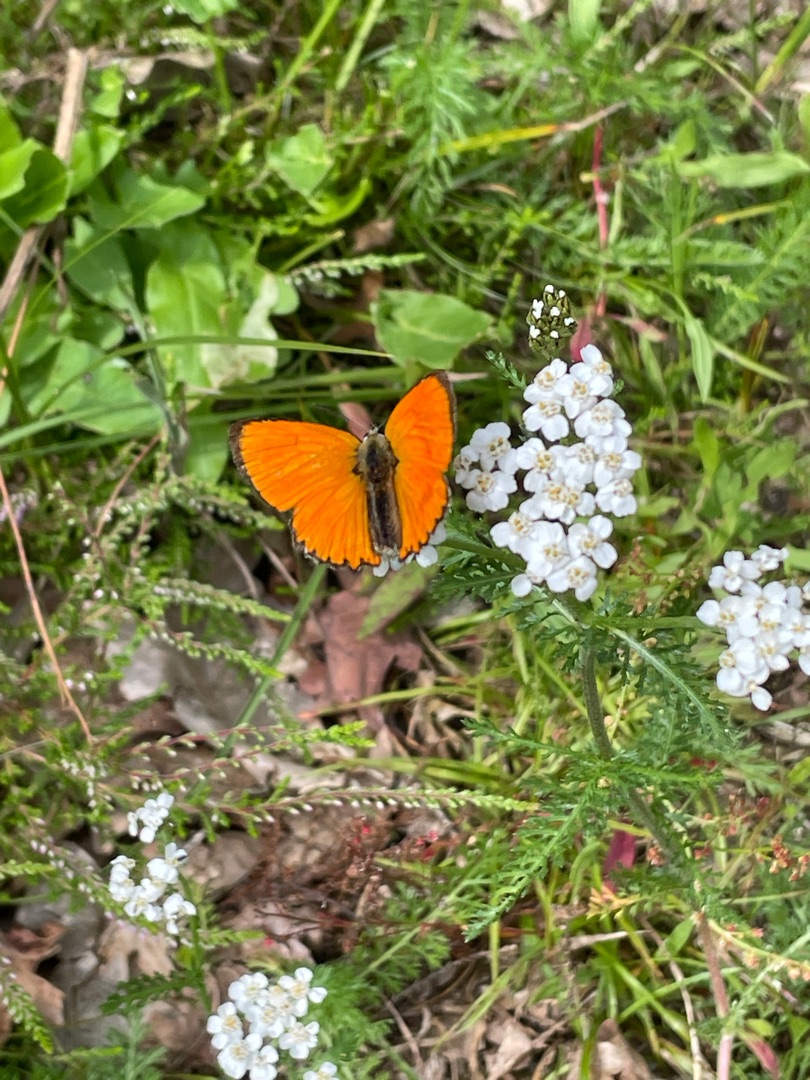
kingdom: Animalia
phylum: Arthropoda
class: Insecta
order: Lepidoptera
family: Lycaenidae
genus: Lycaena
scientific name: Lycaena virgaureae
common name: Dukatsommerfugl
